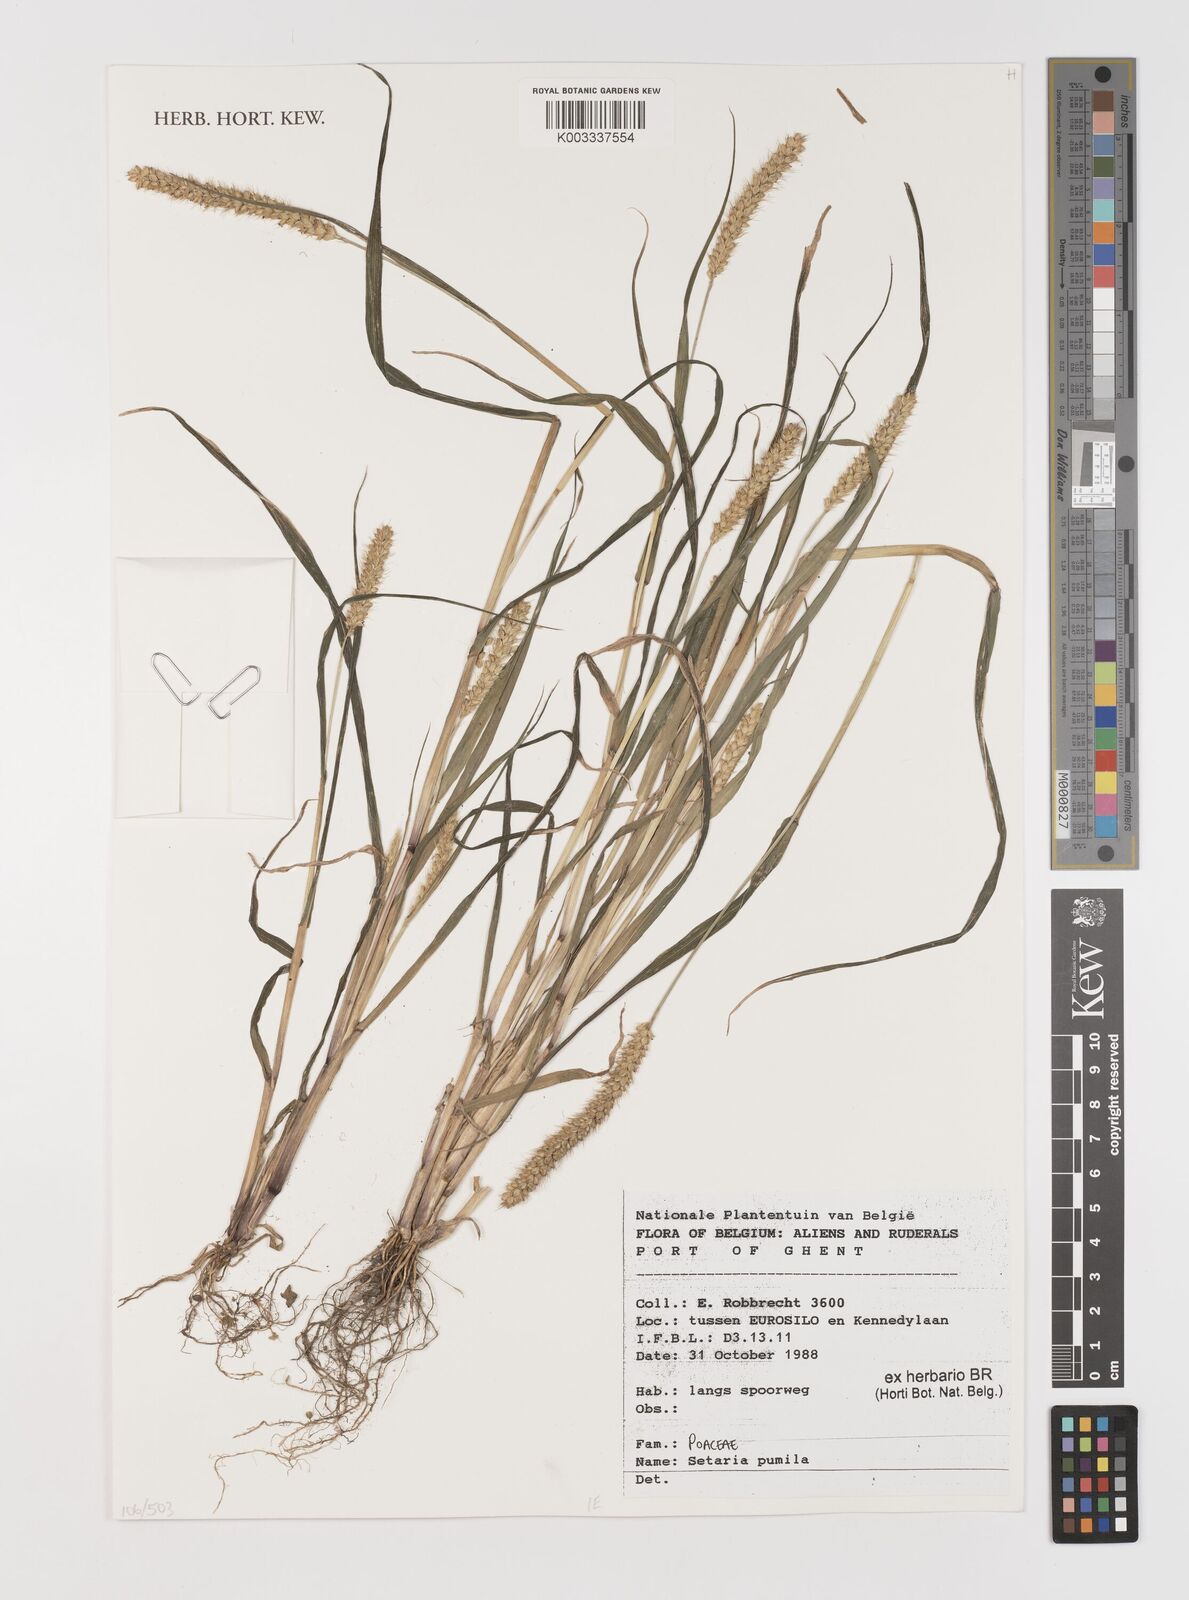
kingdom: Plantae
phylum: Tracheophyta
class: Liliopsida
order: Poales
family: Poaceae
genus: Setaria
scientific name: Setaria pumila
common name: Yellow bristle-grass
